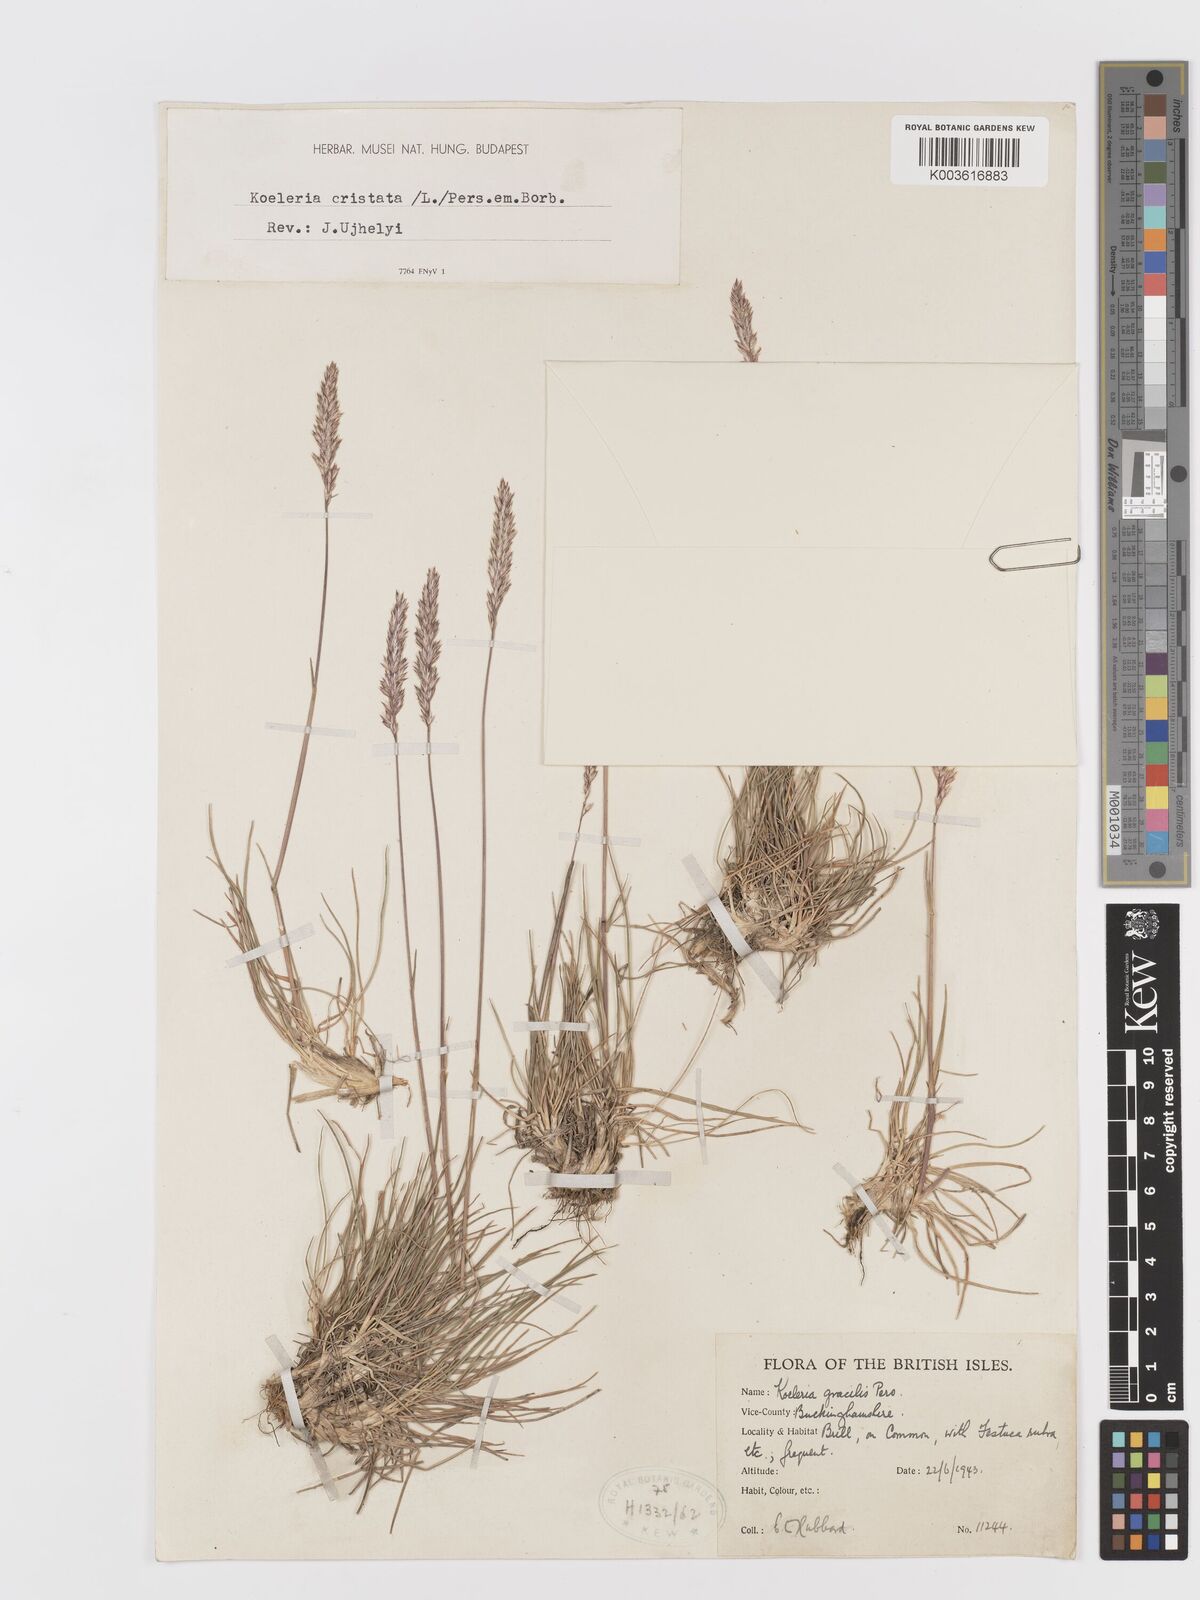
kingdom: Plantae
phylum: Tracheophyta
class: Liliopsida
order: Poales
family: Poaceae
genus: Koeleria
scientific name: Koeleria macrantha
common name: Crested hair-grass
